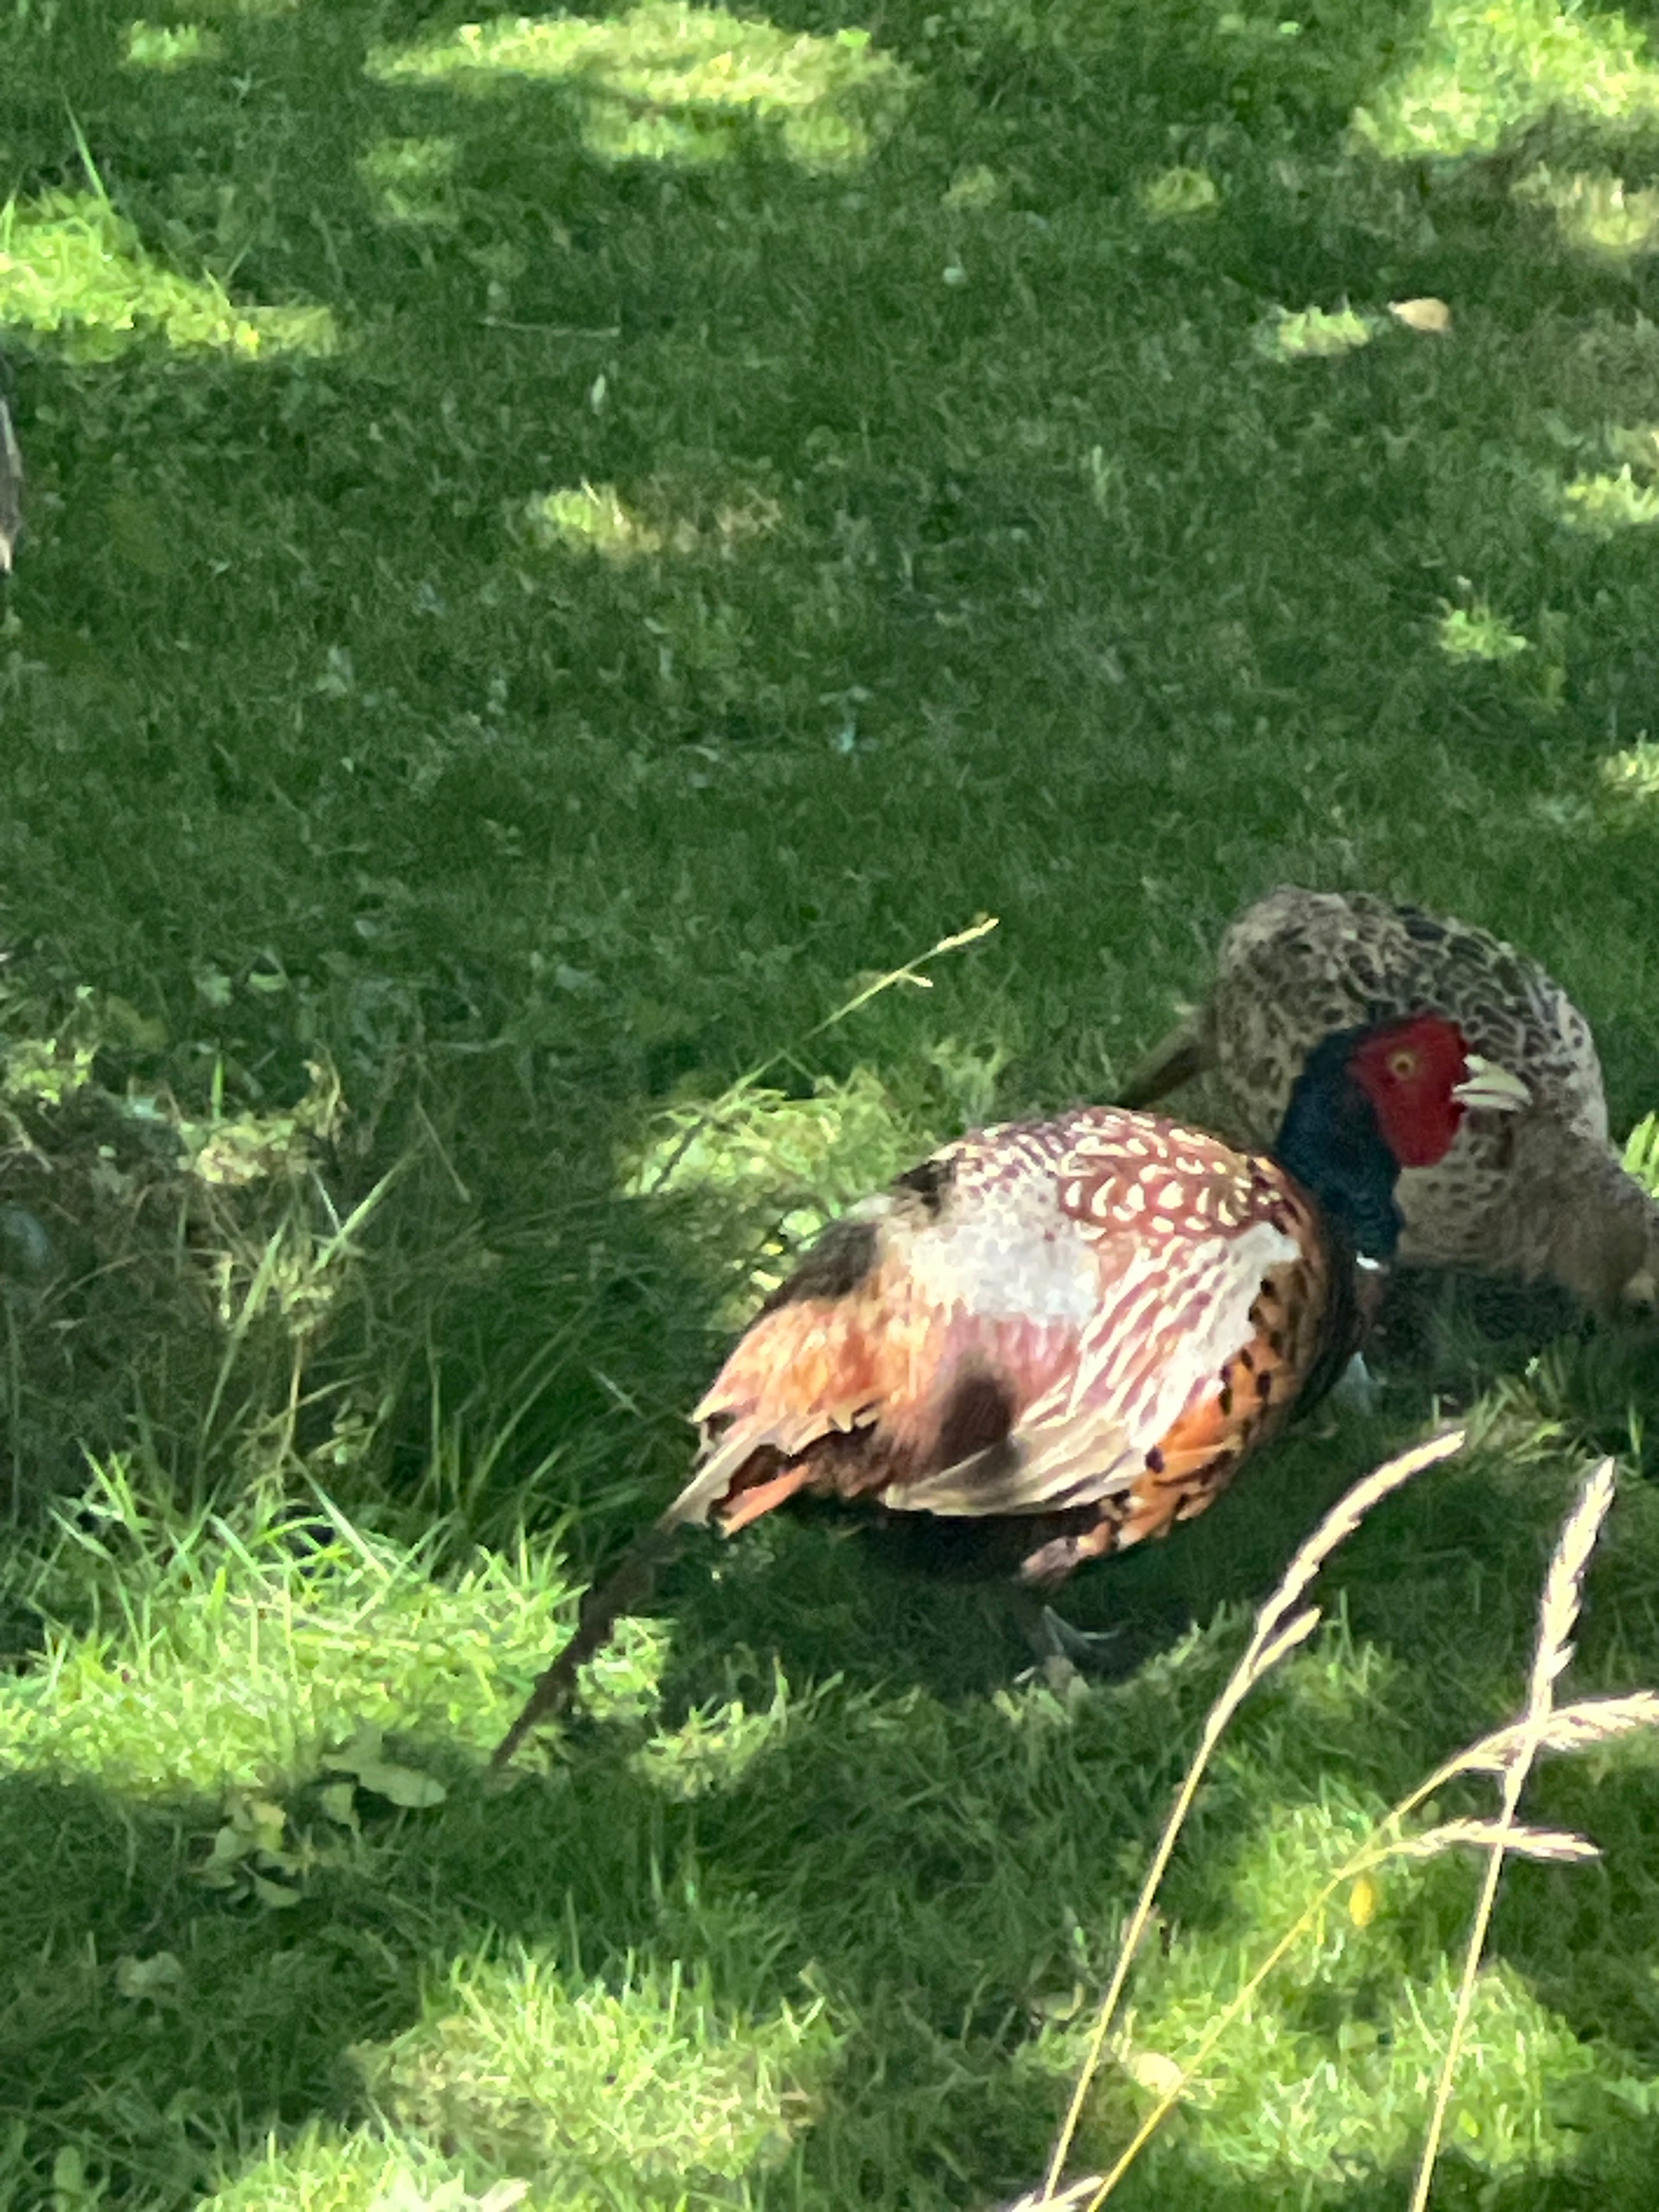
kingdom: Animalia
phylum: Chordata
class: Aves
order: Galliformes
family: Phasianidae
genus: Phasianus
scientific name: Phasianus colchicus
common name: Fasan
